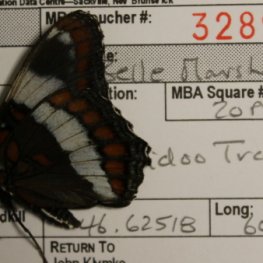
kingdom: Animalia
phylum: Arthropoda
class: Insecta
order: Lepidoptera
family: Nymphalidae
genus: Limenitis
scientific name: Limenitis arthemis
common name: Red-spotted Admiral
